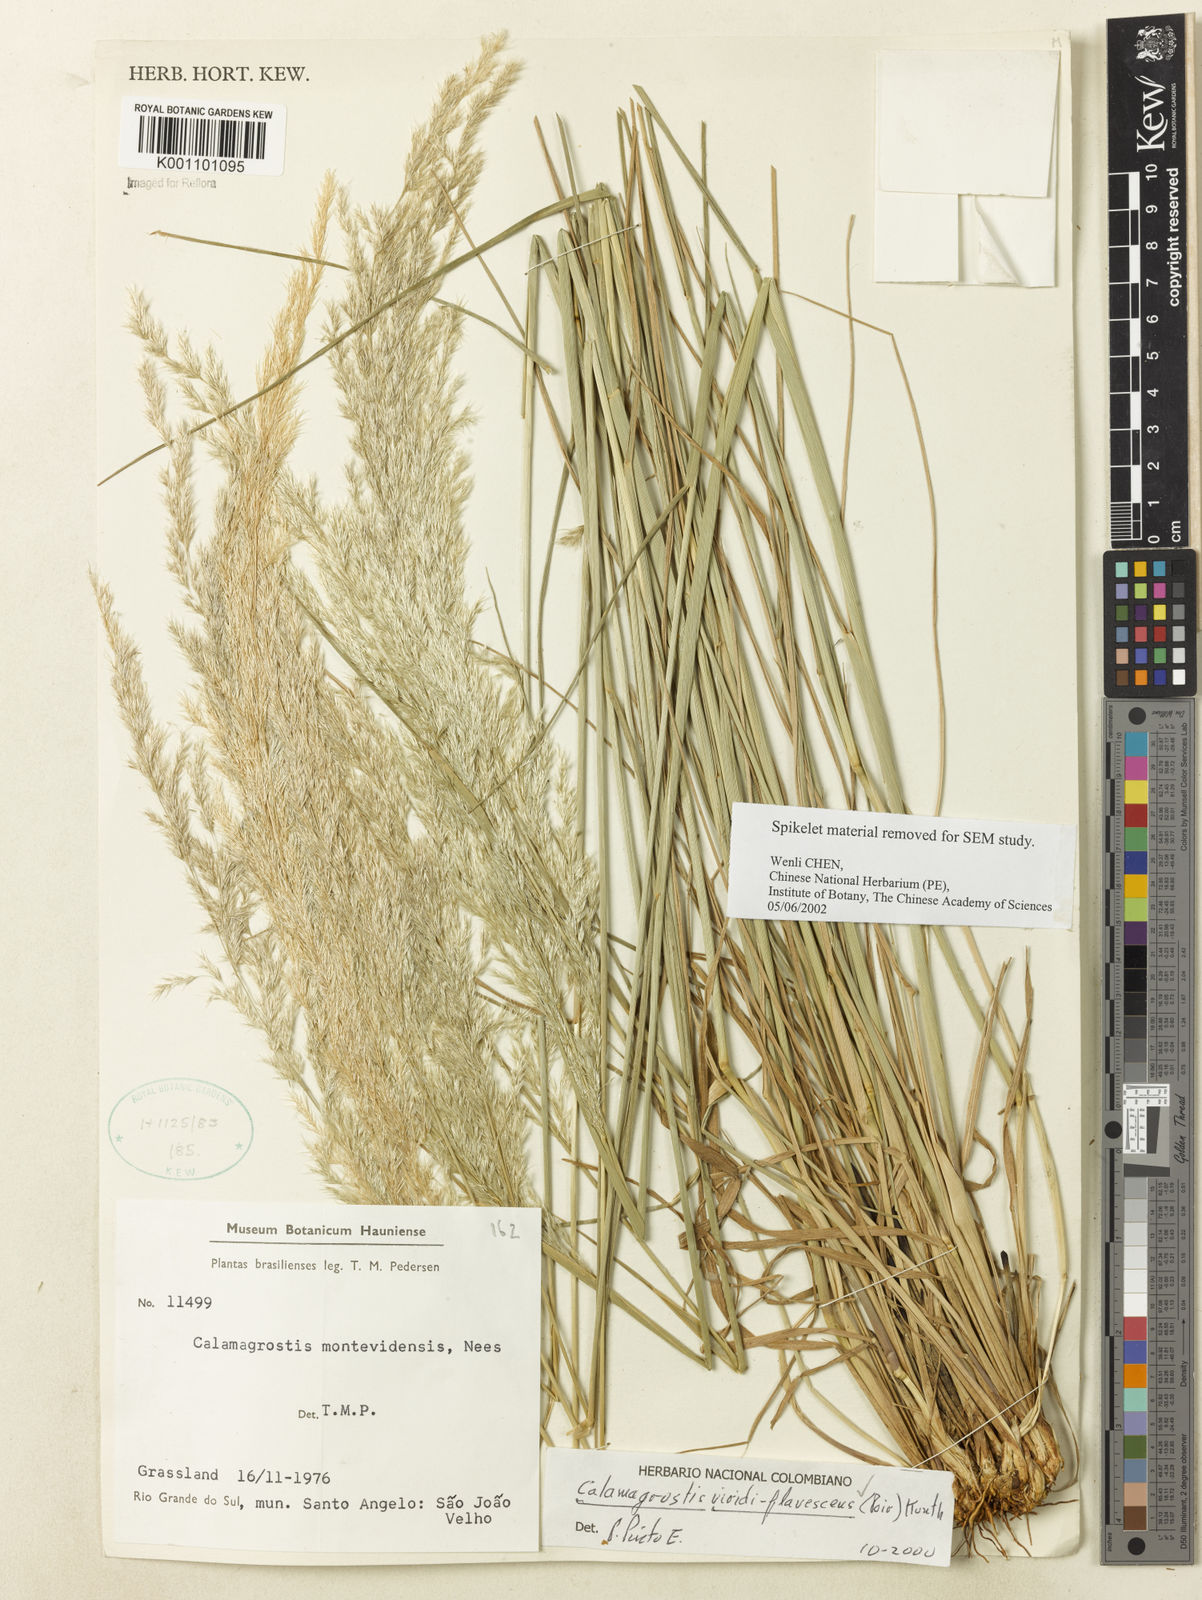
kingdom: Plantae
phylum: Tracheophyta
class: Liliopsida
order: Poales
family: Poaceae
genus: Cinnagrostis
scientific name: Cinnagrostis viridiflavescens
